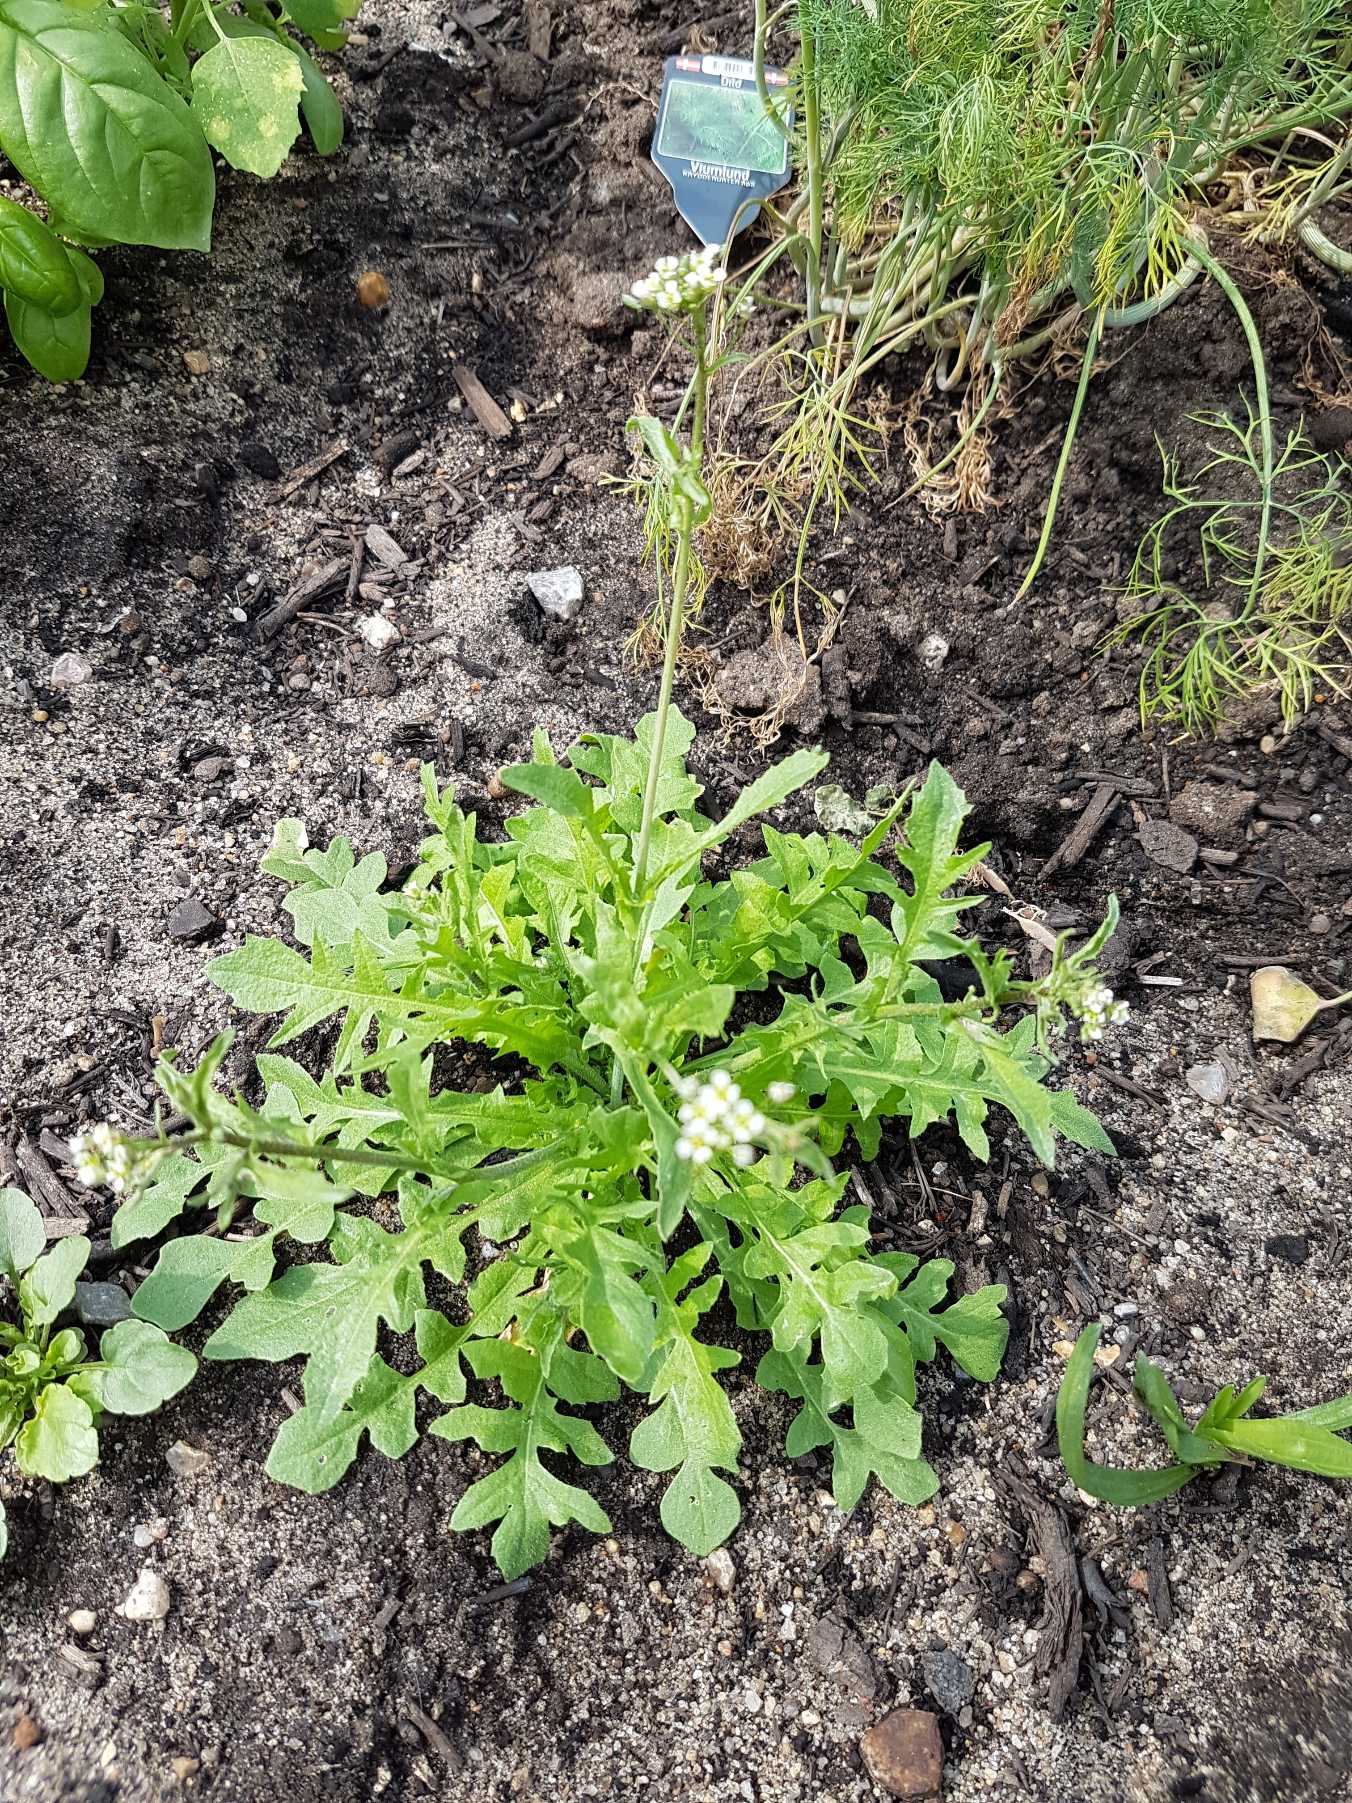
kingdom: Plantae
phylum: Tracheophyta
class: Magnoliopsida
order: Brassicales
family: Brassicaceae
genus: Capsella
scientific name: Capsella bursa-pastoris
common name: Hyrdetaske
